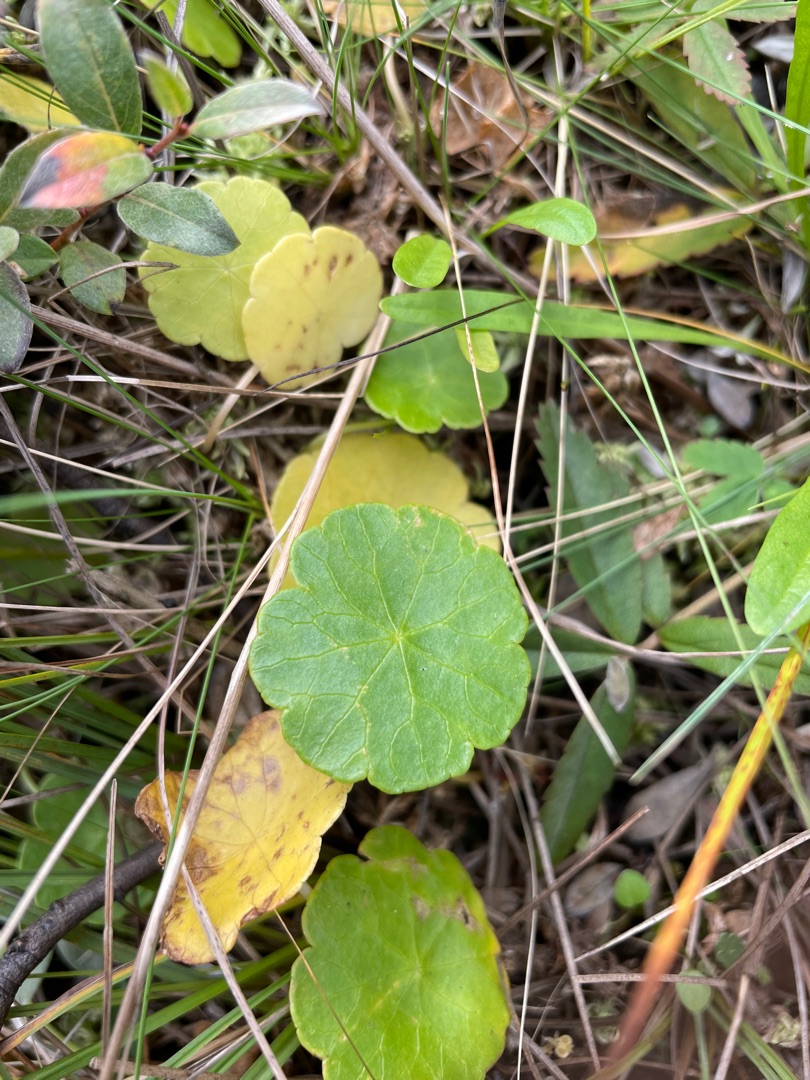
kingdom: Plantae
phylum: Tracheophyta
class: Magnoliopsida
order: Apiales
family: Araliaceae
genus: Hydrocotyle
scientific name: Hydrocotyle vulgaris
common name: Vandnavle
